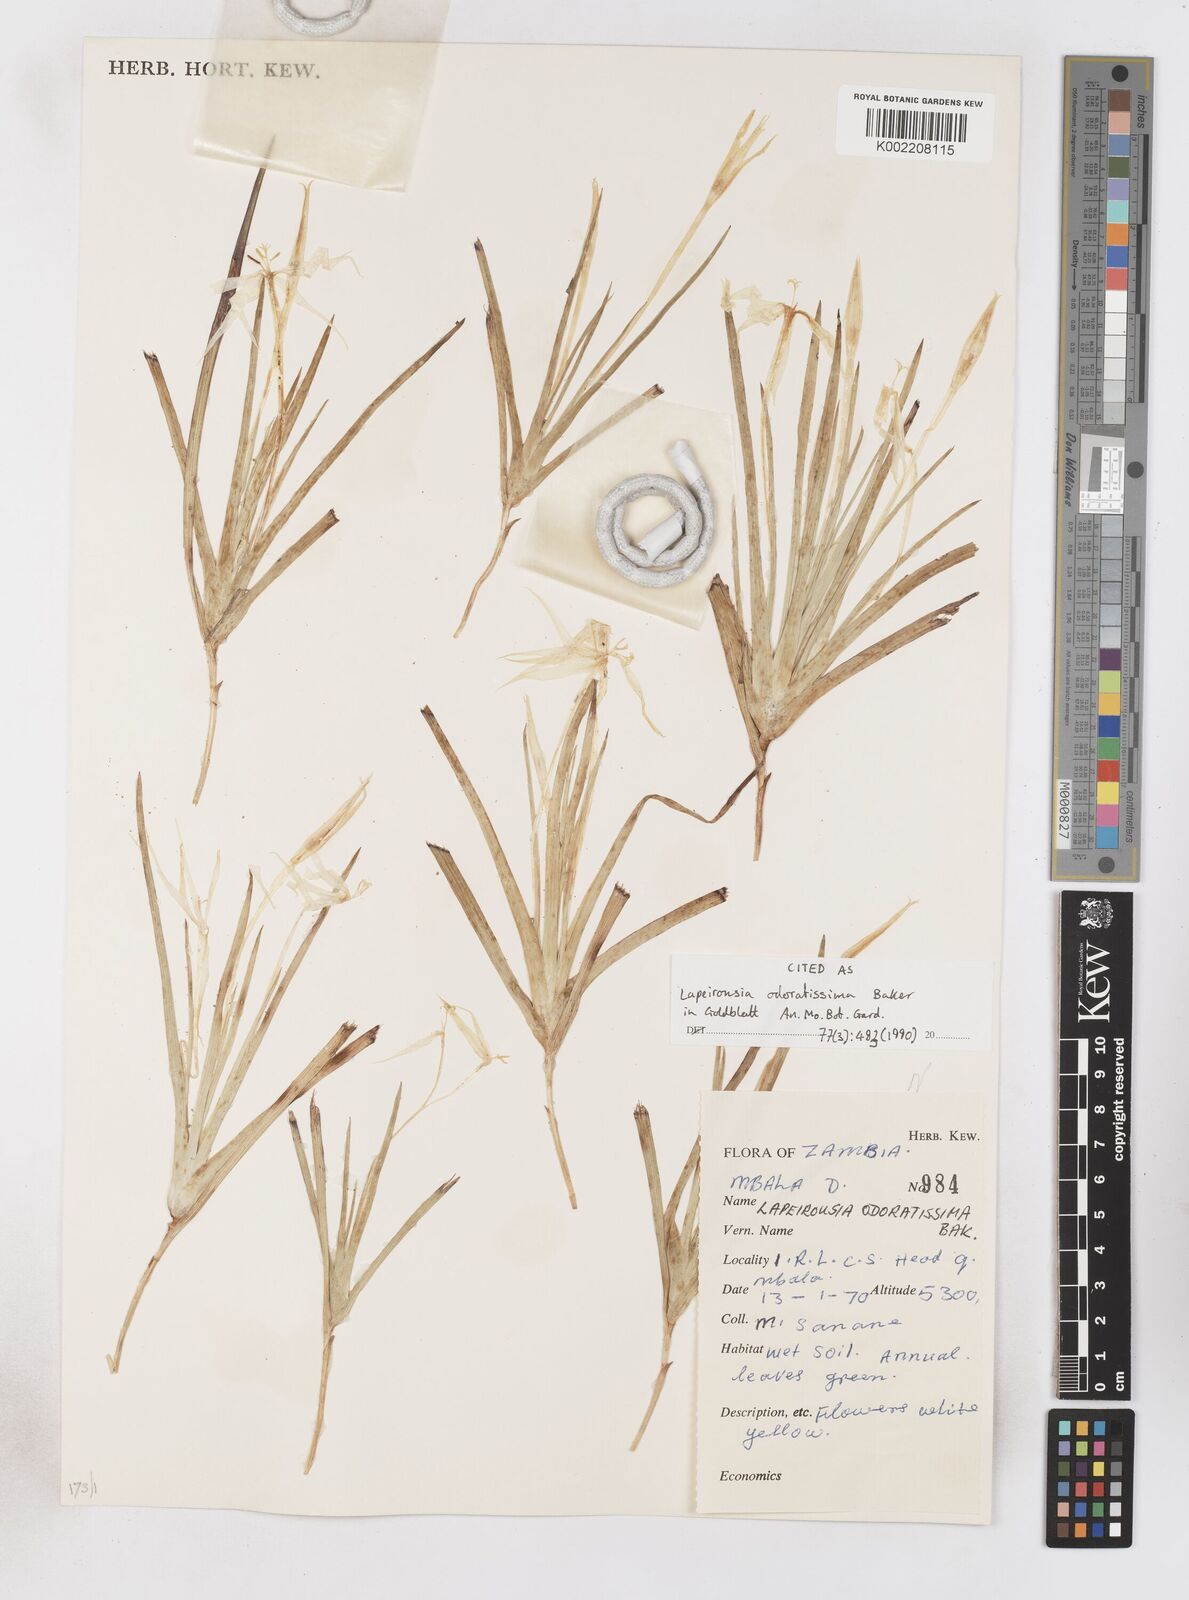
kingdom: Plantae
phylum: Tracheophyta
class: Liliopsida
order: Asparagales
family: Iridaceae
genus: Lapeirousia
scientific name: Lapeirousia odoratissima
